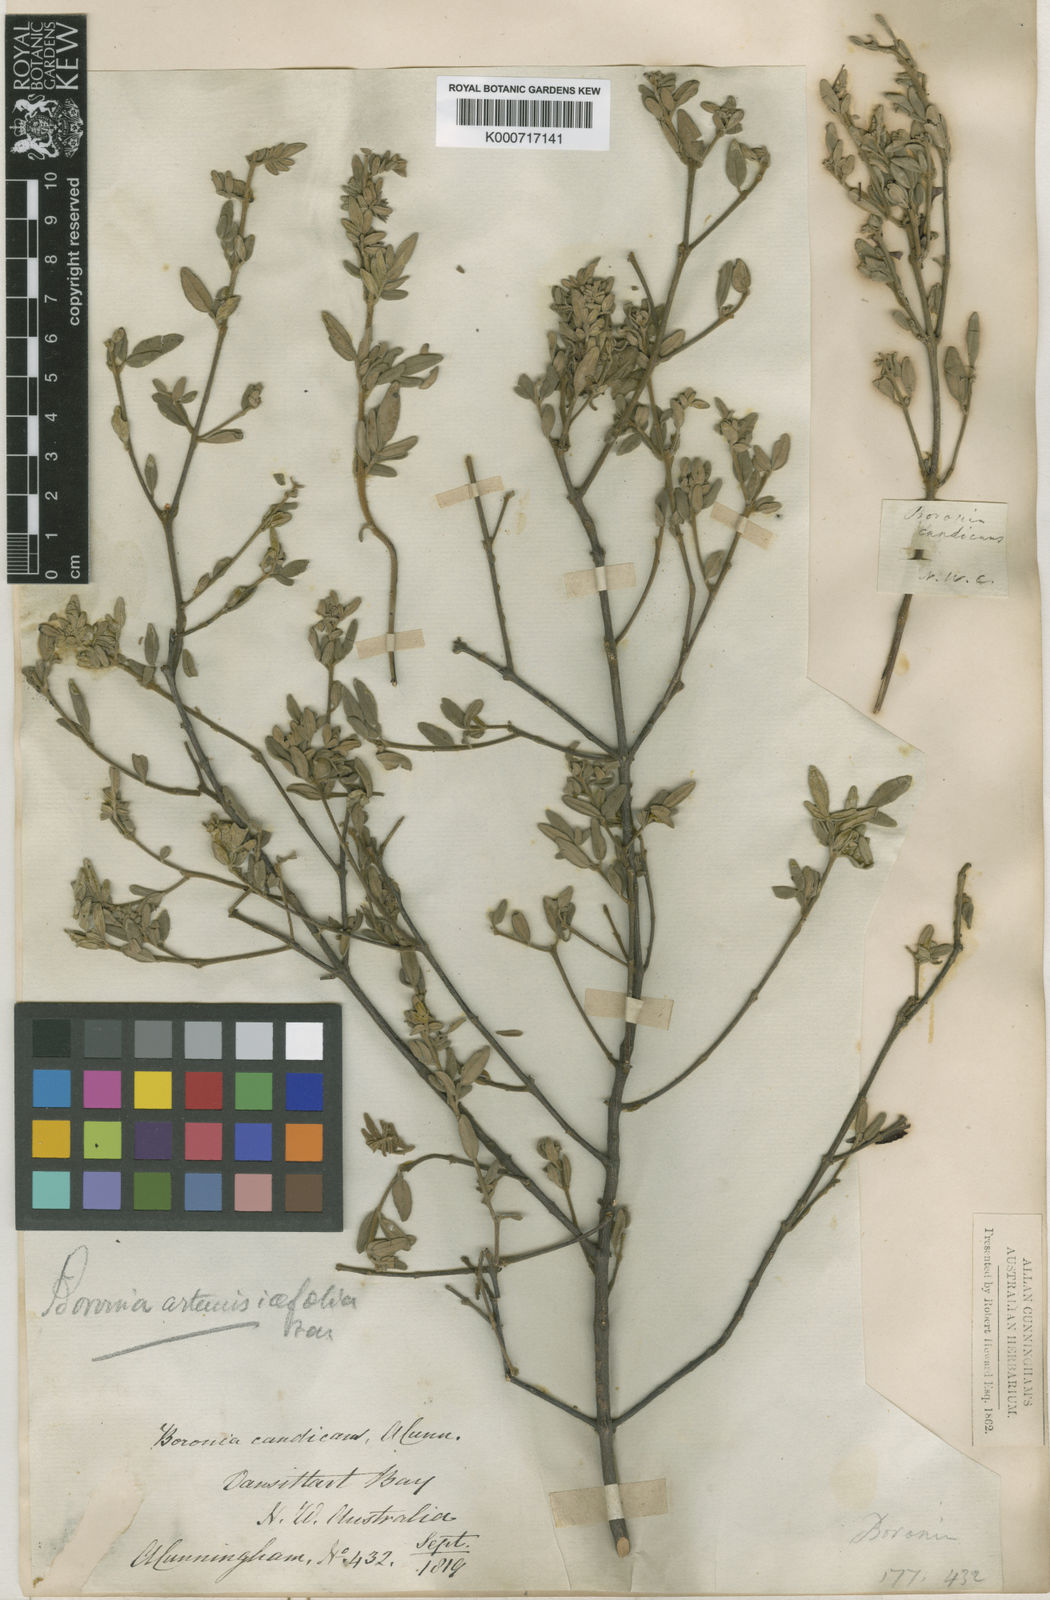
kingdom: Plantae
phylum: Tracheophyta
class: Magnoliopsida
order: Sapindales
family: Rutaceae
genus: Boronia
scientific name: Boronia filicifolia
